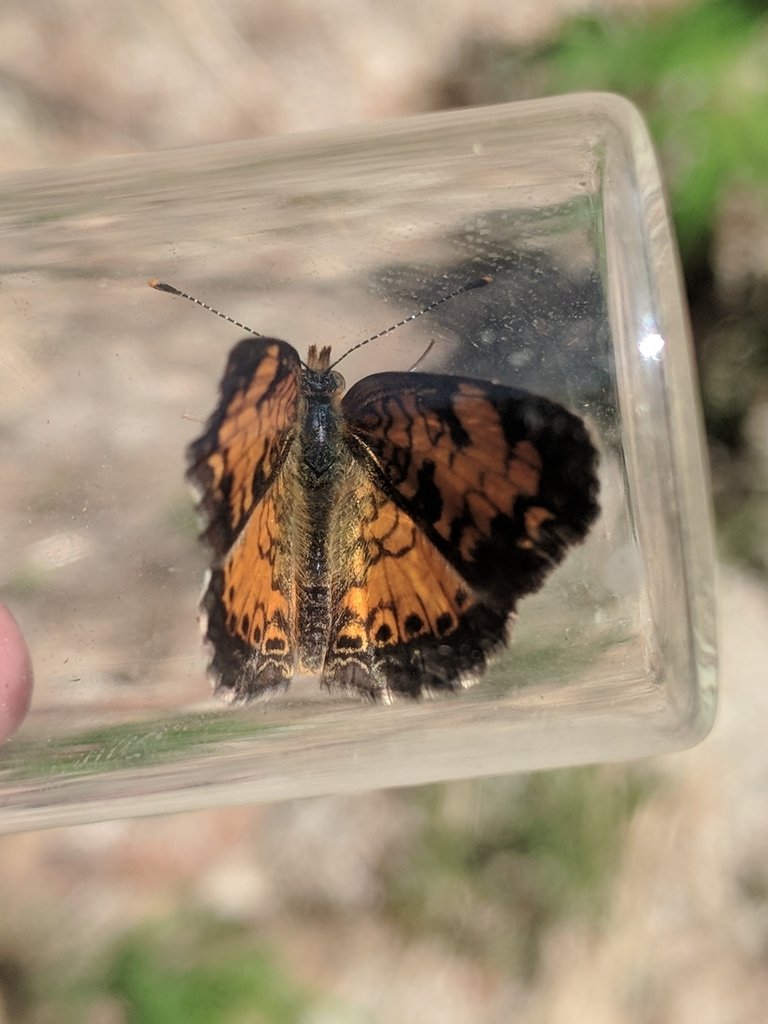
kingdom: Animalia
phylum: Arthropoda
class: Insecta
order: Lepidoptera
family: Nymphalidae
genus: Phyciodes
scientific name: Phyciodes tharos
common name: Northern Crescent
